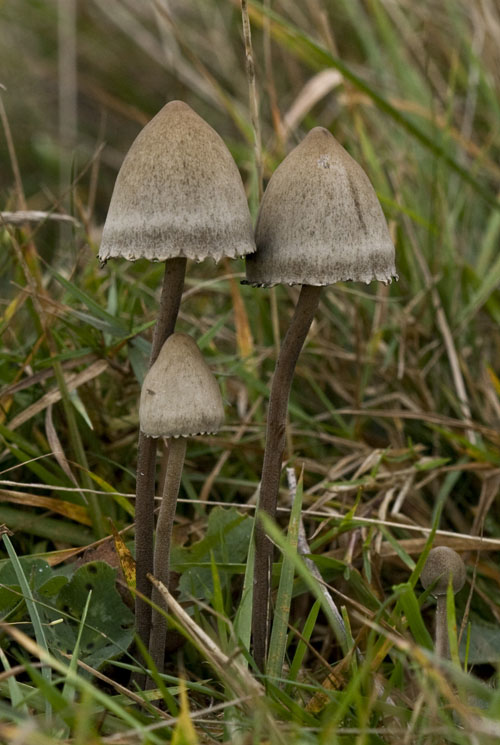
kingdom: Fungi
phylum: Basidiomycota
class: Agaricomycetes
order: Agaricales
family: Bolbitiaceae
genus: Panaeolus
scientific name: Panaeolus papilionaceus
